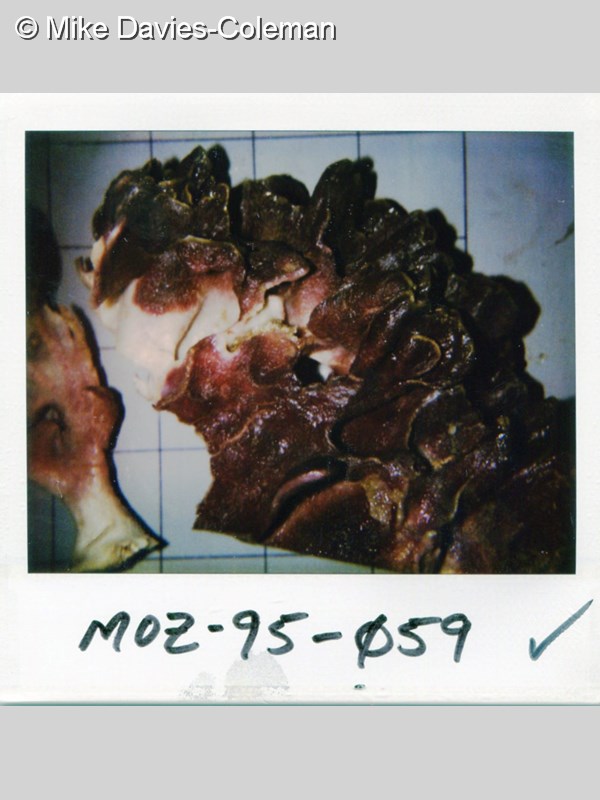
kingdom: Animalia
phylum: Porifera
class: Calcarea
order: Leucosolenida
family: Grantiidae
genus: Amphiute
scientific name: Amphiute
